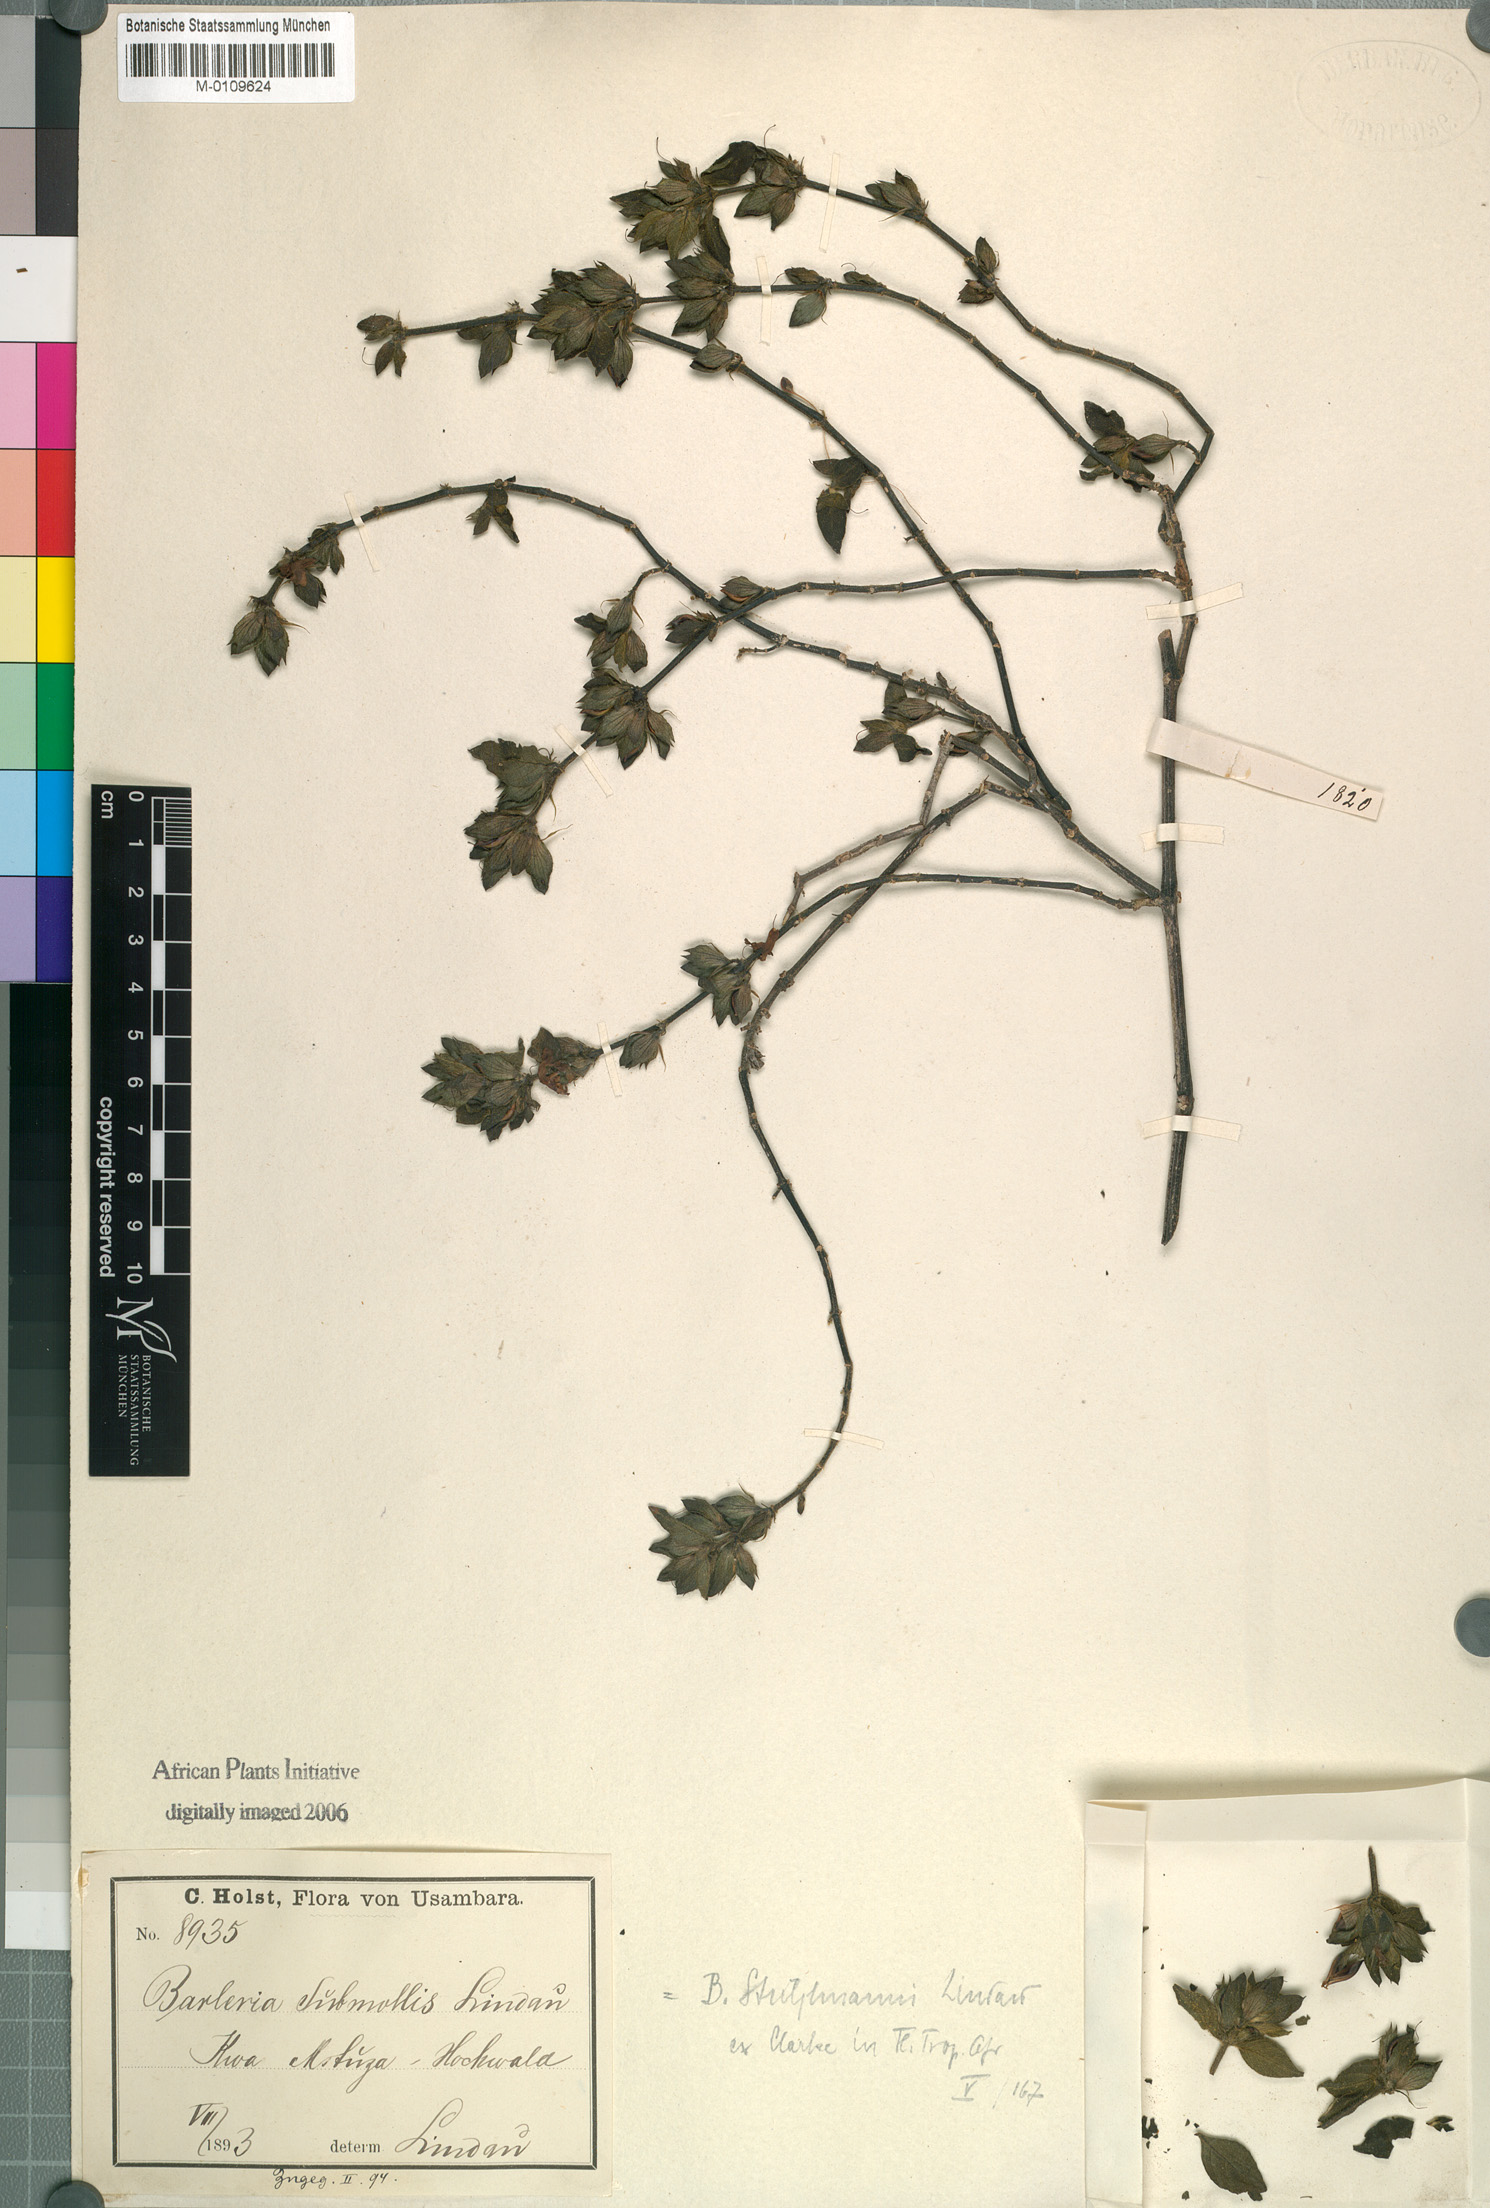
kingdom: Plantae
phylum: Tracheophyta
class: Magnoliopsida
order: Lamiales
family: Acanthaceae
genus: Barleria
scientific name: Barleria
